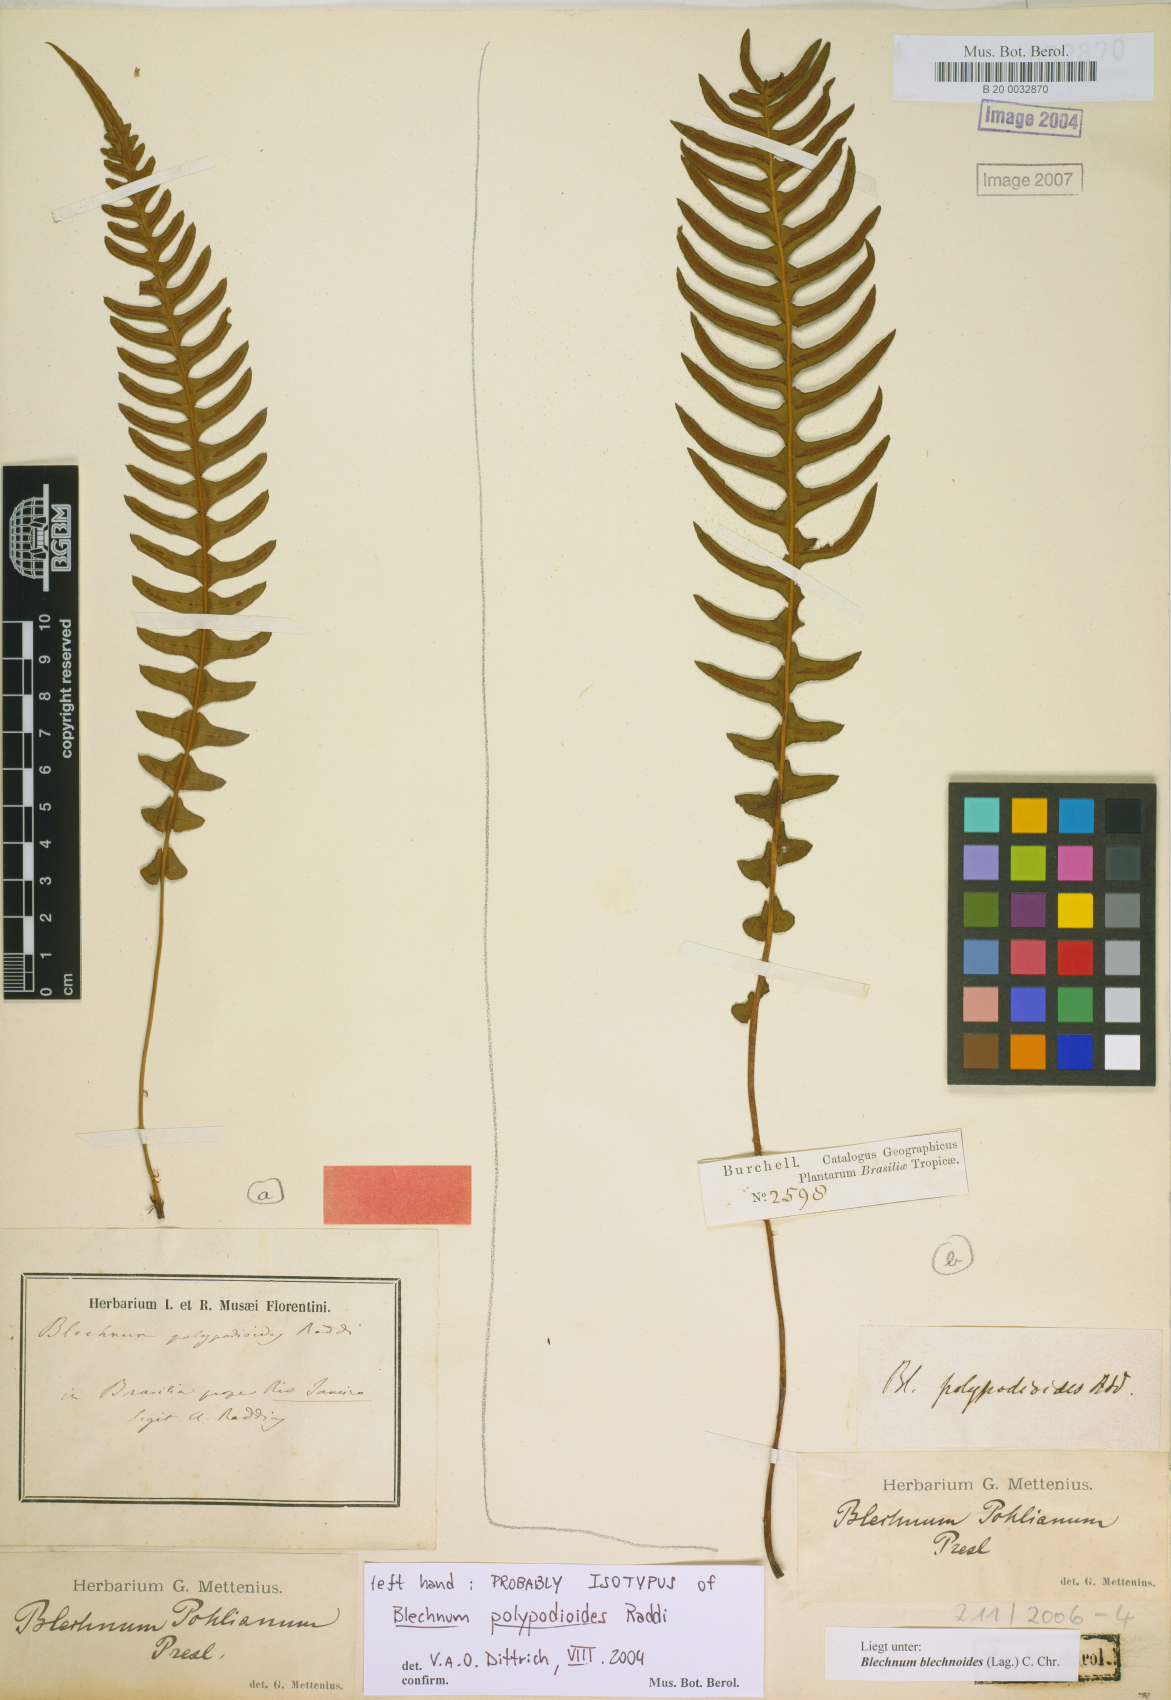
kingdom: Plantae
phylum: Tracheophyta
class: Polypodiopsida
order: Polypodiales
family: Blechnaceae
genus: Blechnum
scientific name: Blechnum polypodioides
